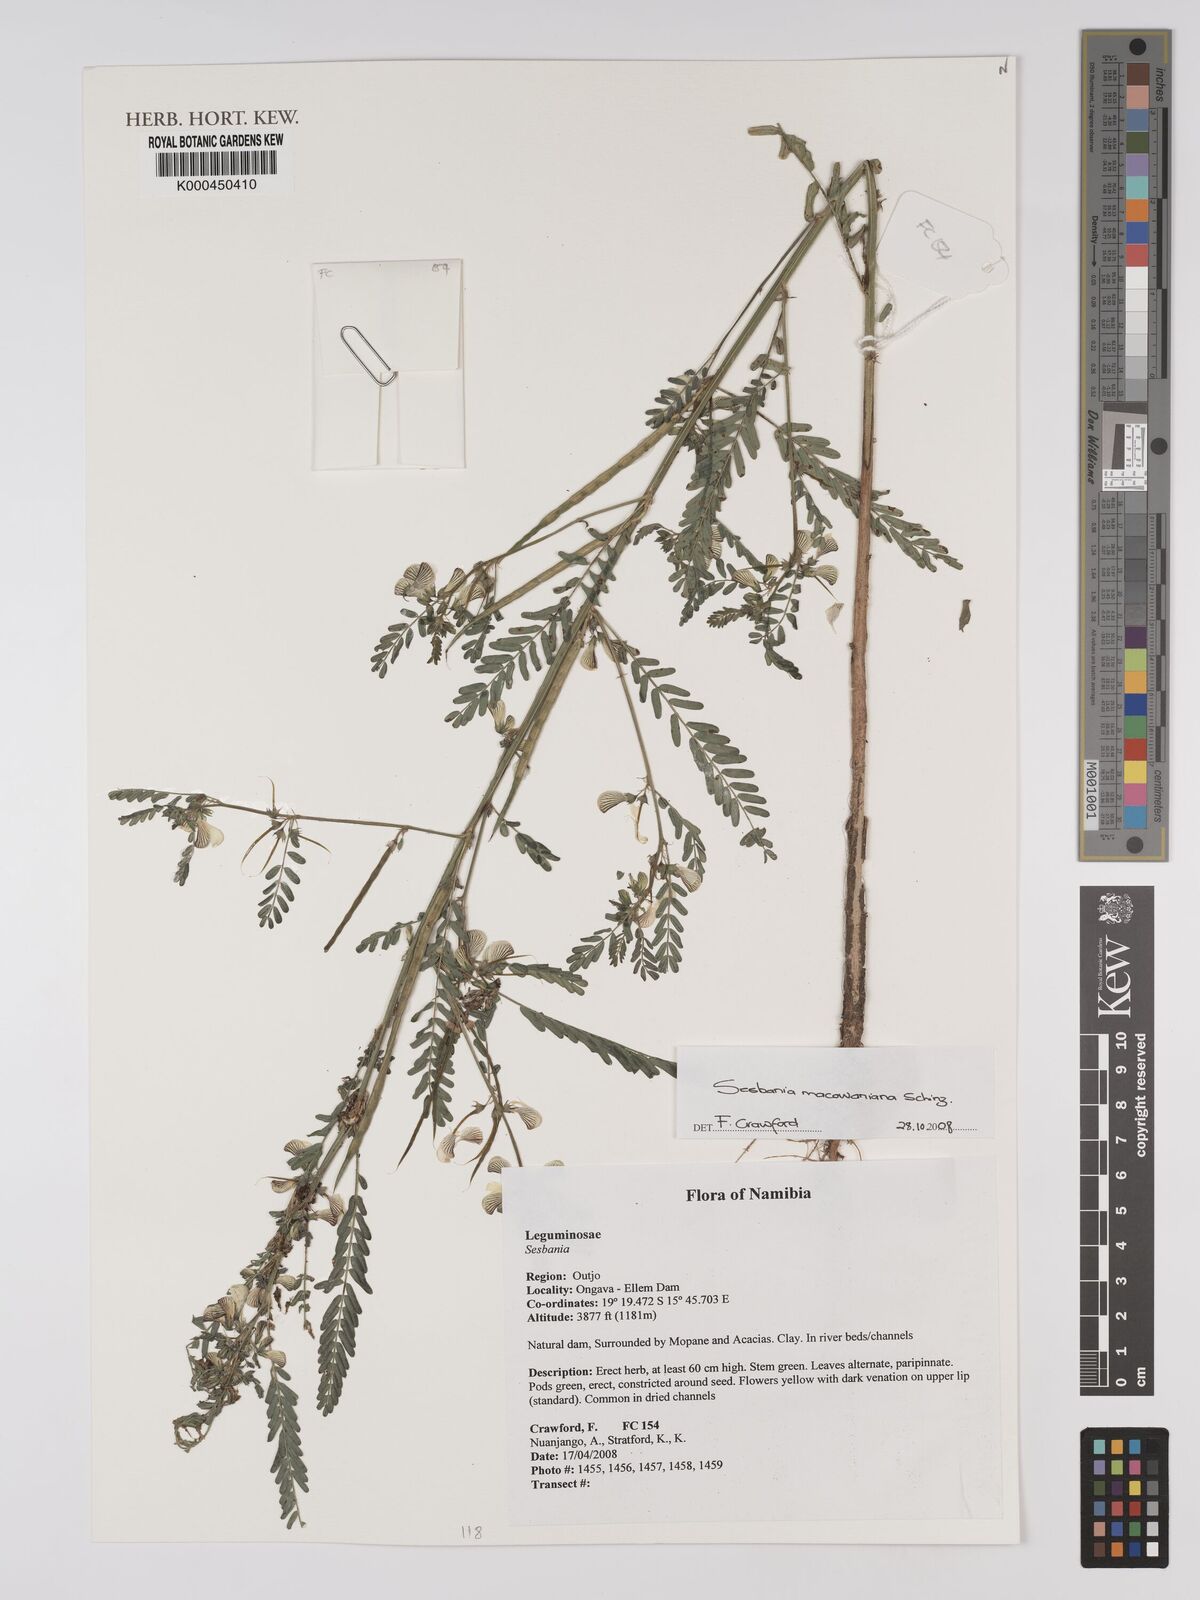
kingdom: Plantae
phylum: Tracheophyta
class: Magnoliopsida
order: Fabales
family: Fabaceae
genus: Sesbania
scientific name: Sesbania macowaniana
